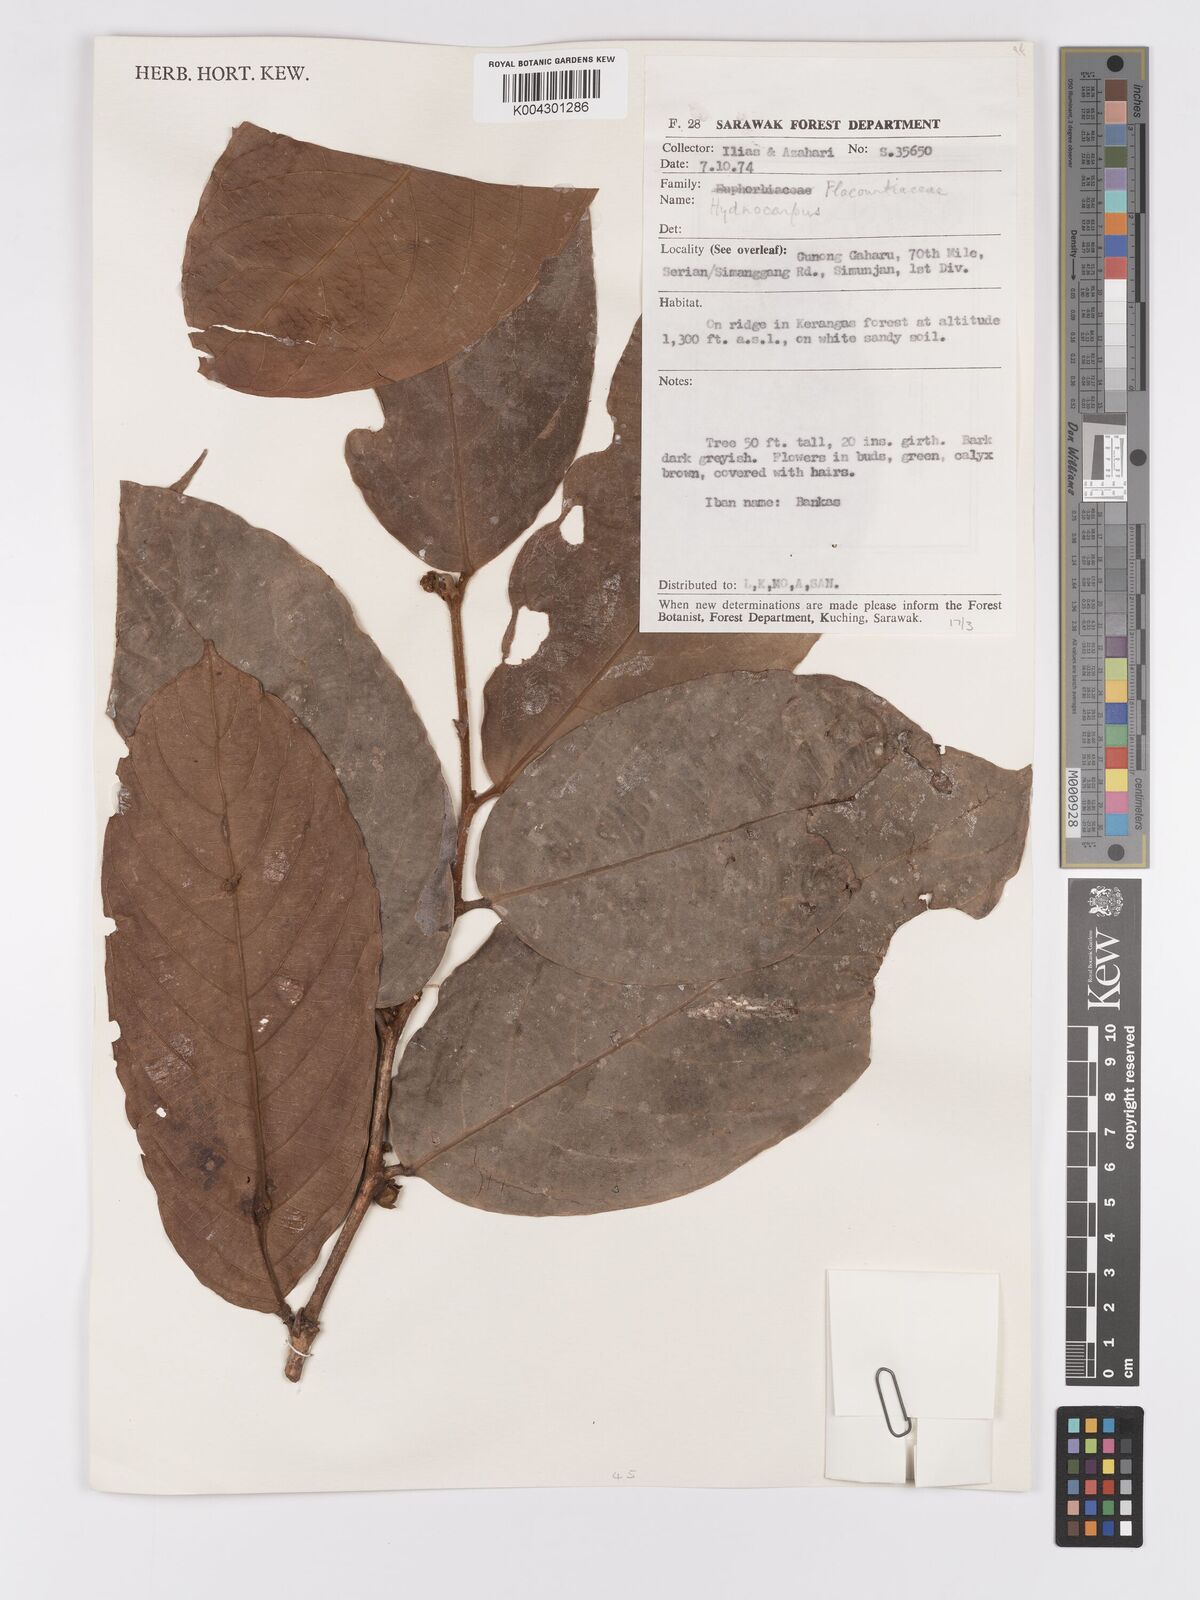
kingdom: Plantae
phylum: Tracheophyta
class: Magnoliopsida
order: Malpighiales
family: Achariaceae
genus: Hydnocarpus
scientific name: Hydnocarpus
